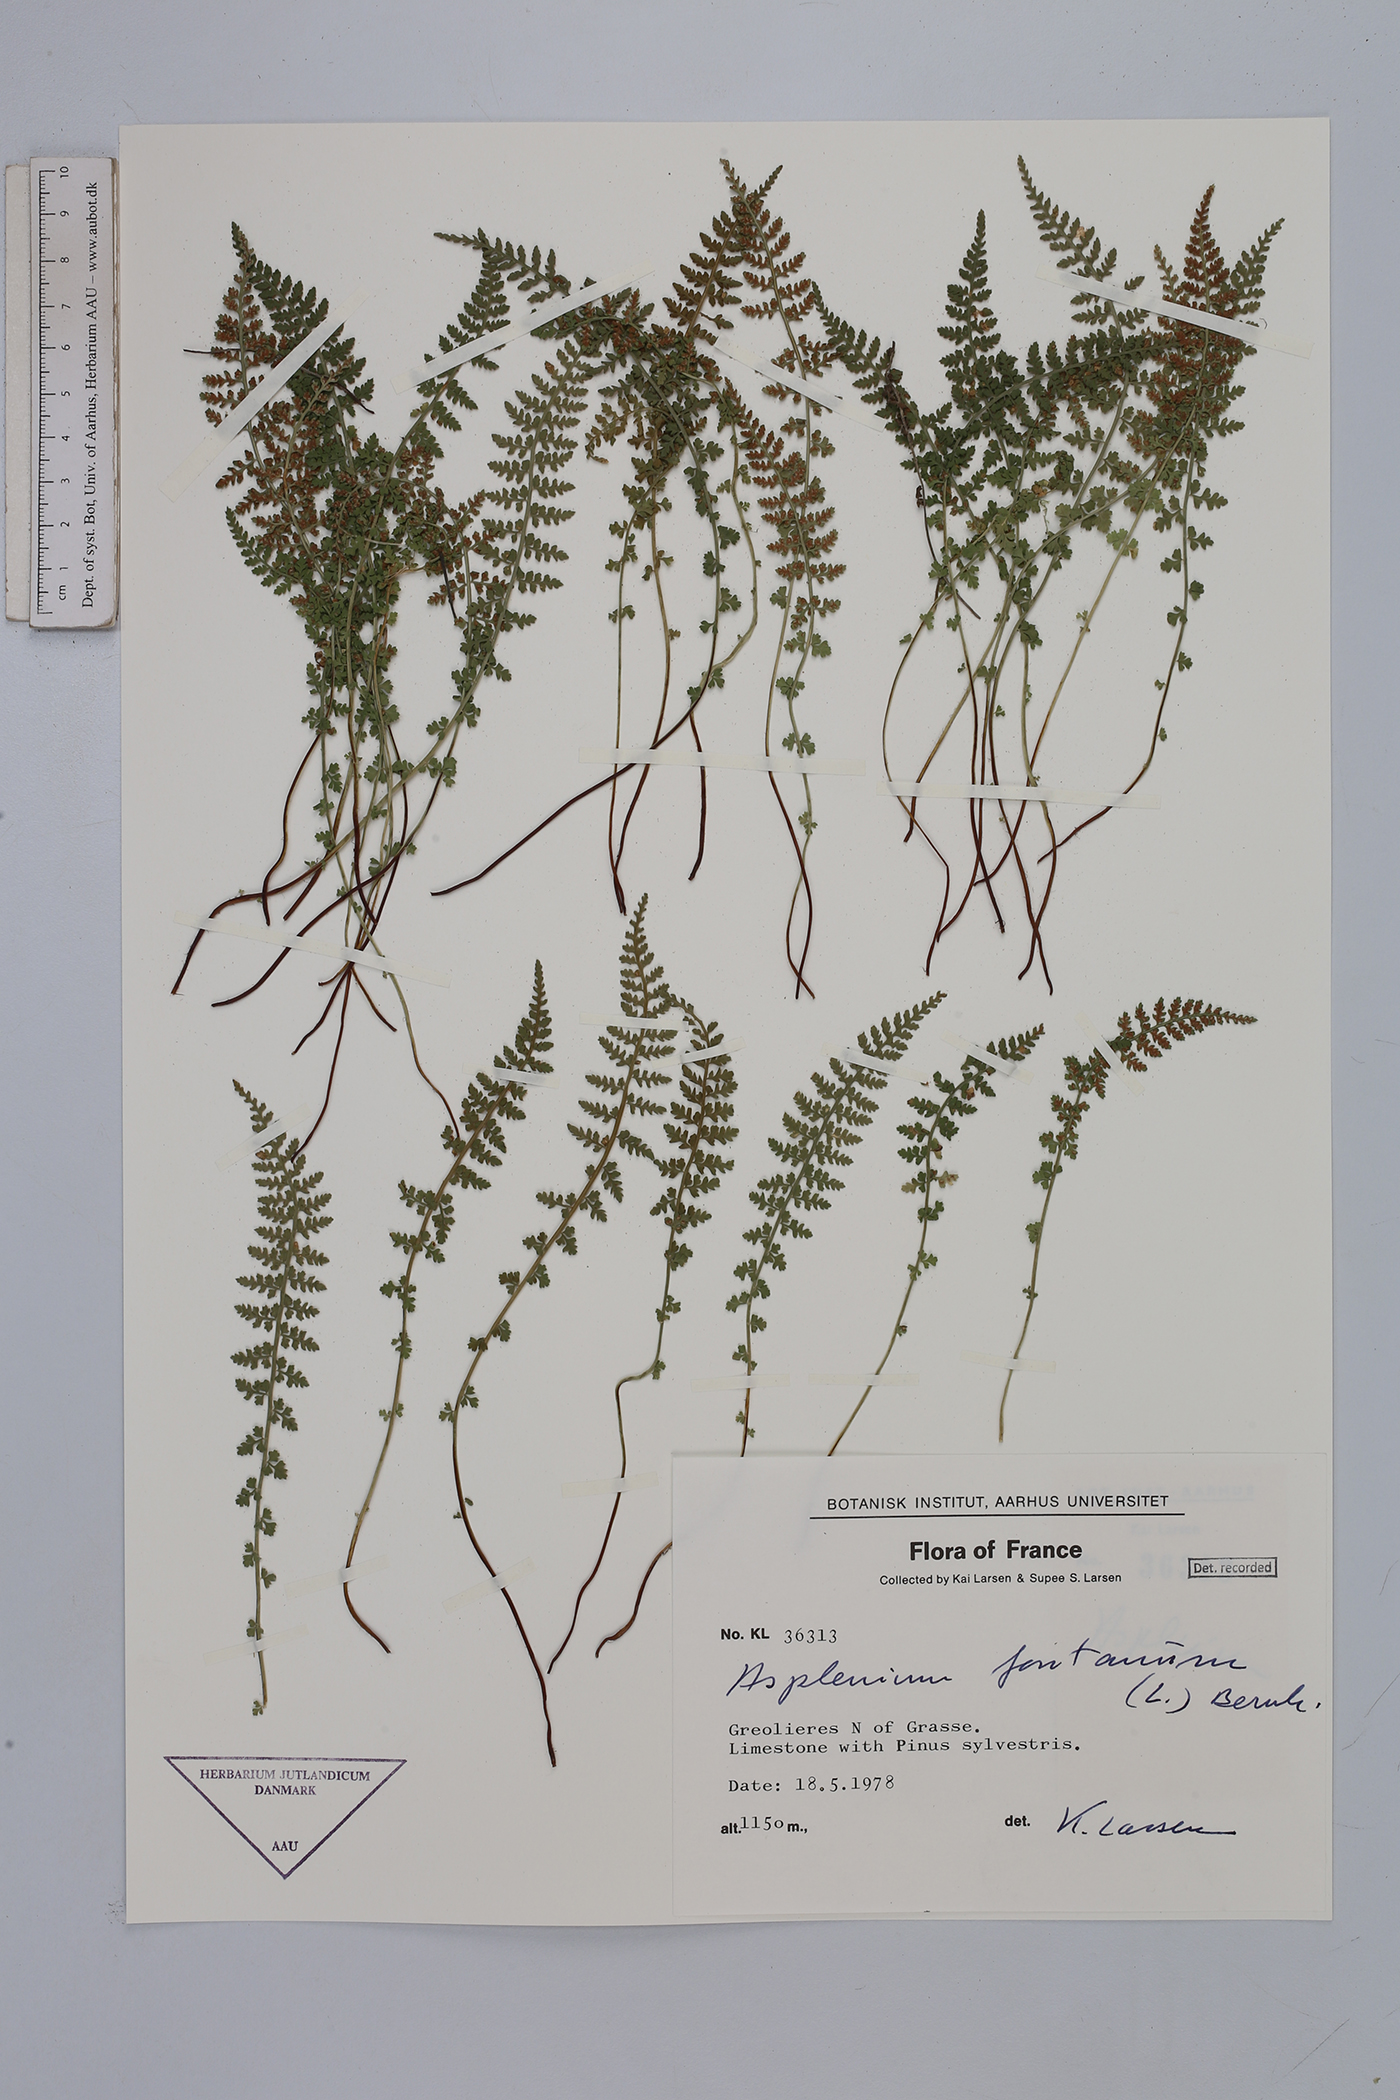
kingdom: Plantae
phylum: Tracheophyta
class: Polypodiopsida
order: Polypodiales
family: Aspleniaceae
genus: Asplenium
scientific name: Asplenium fontanum
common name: Fountain spleenwort
